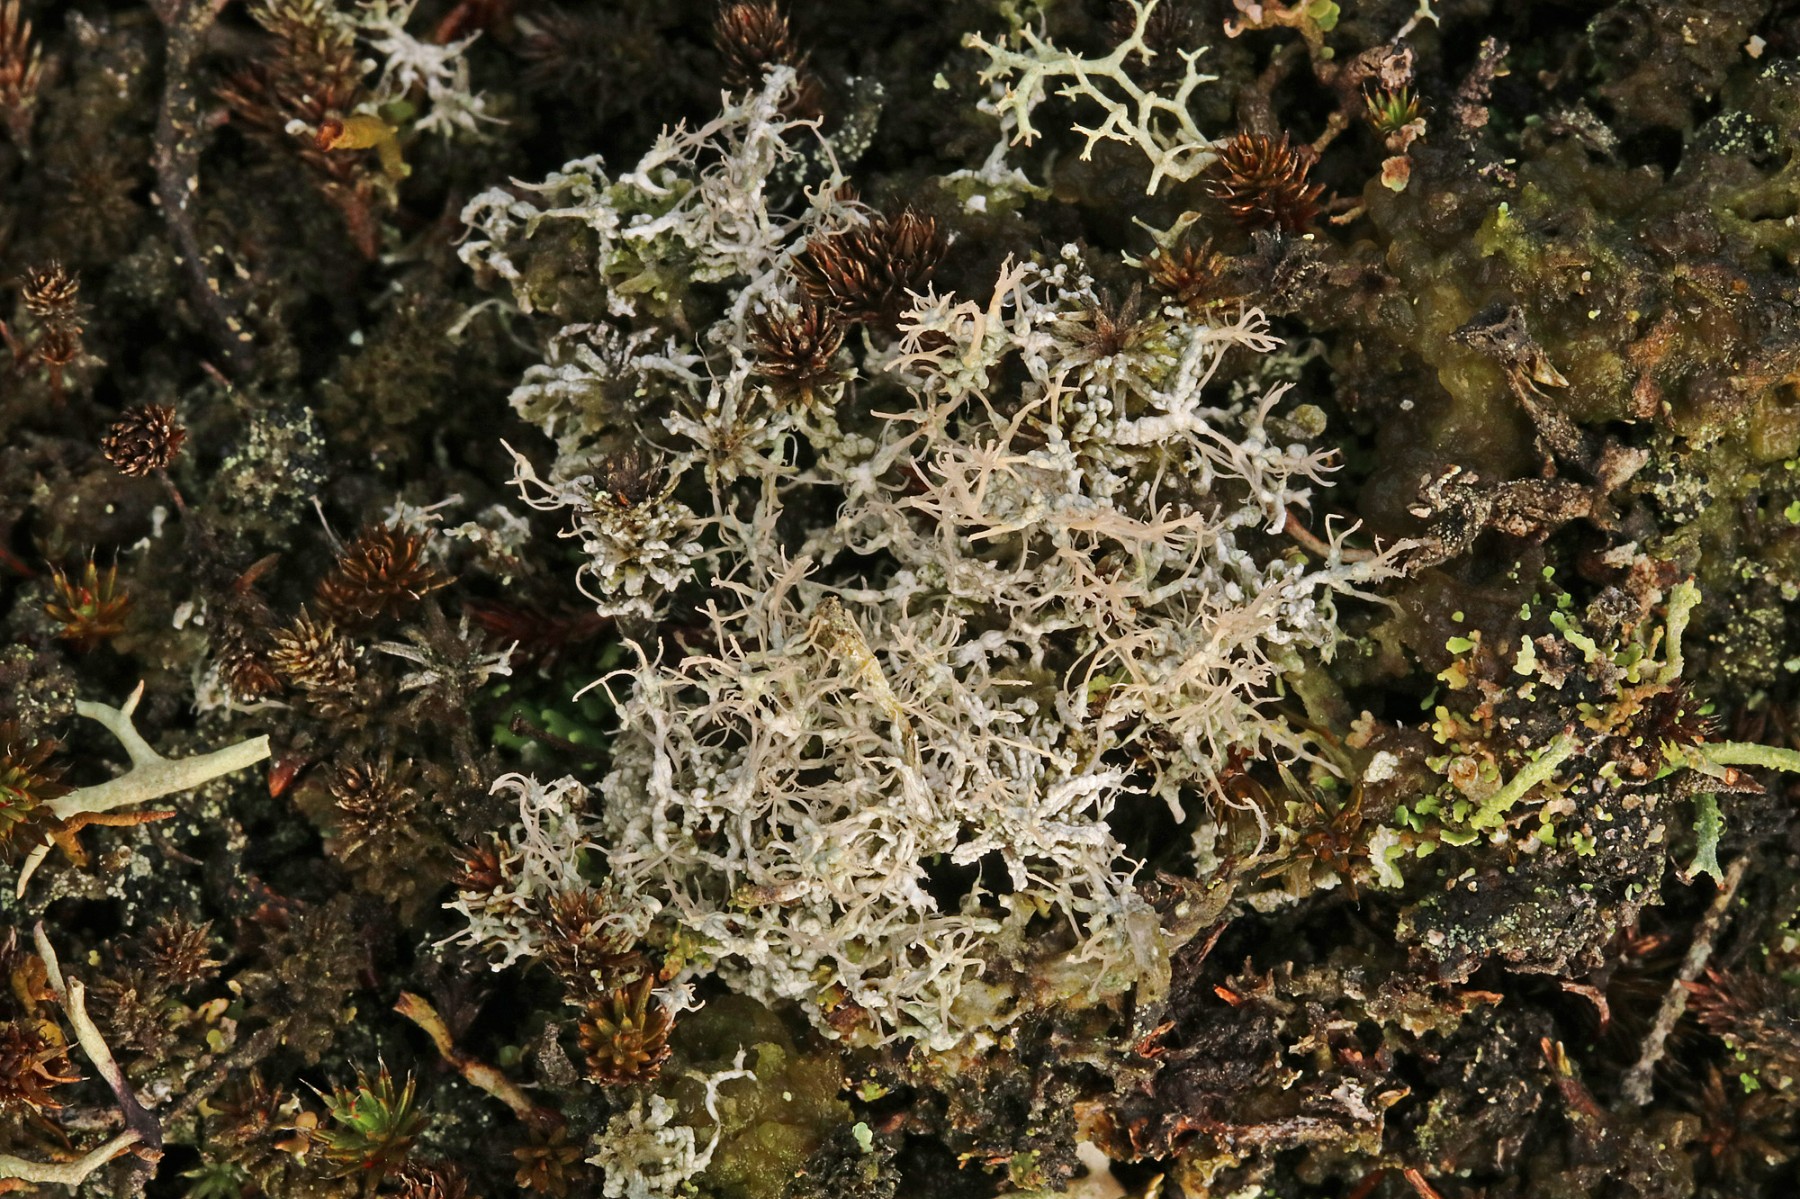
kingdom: Fungi
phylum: Ascomycota
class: Lecanoromycetes
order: Pertusariales
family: Ochrolechiaceae
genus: Ochrolechia
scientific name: Ochrolechia frigida
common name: fjeld-blegskivelav
